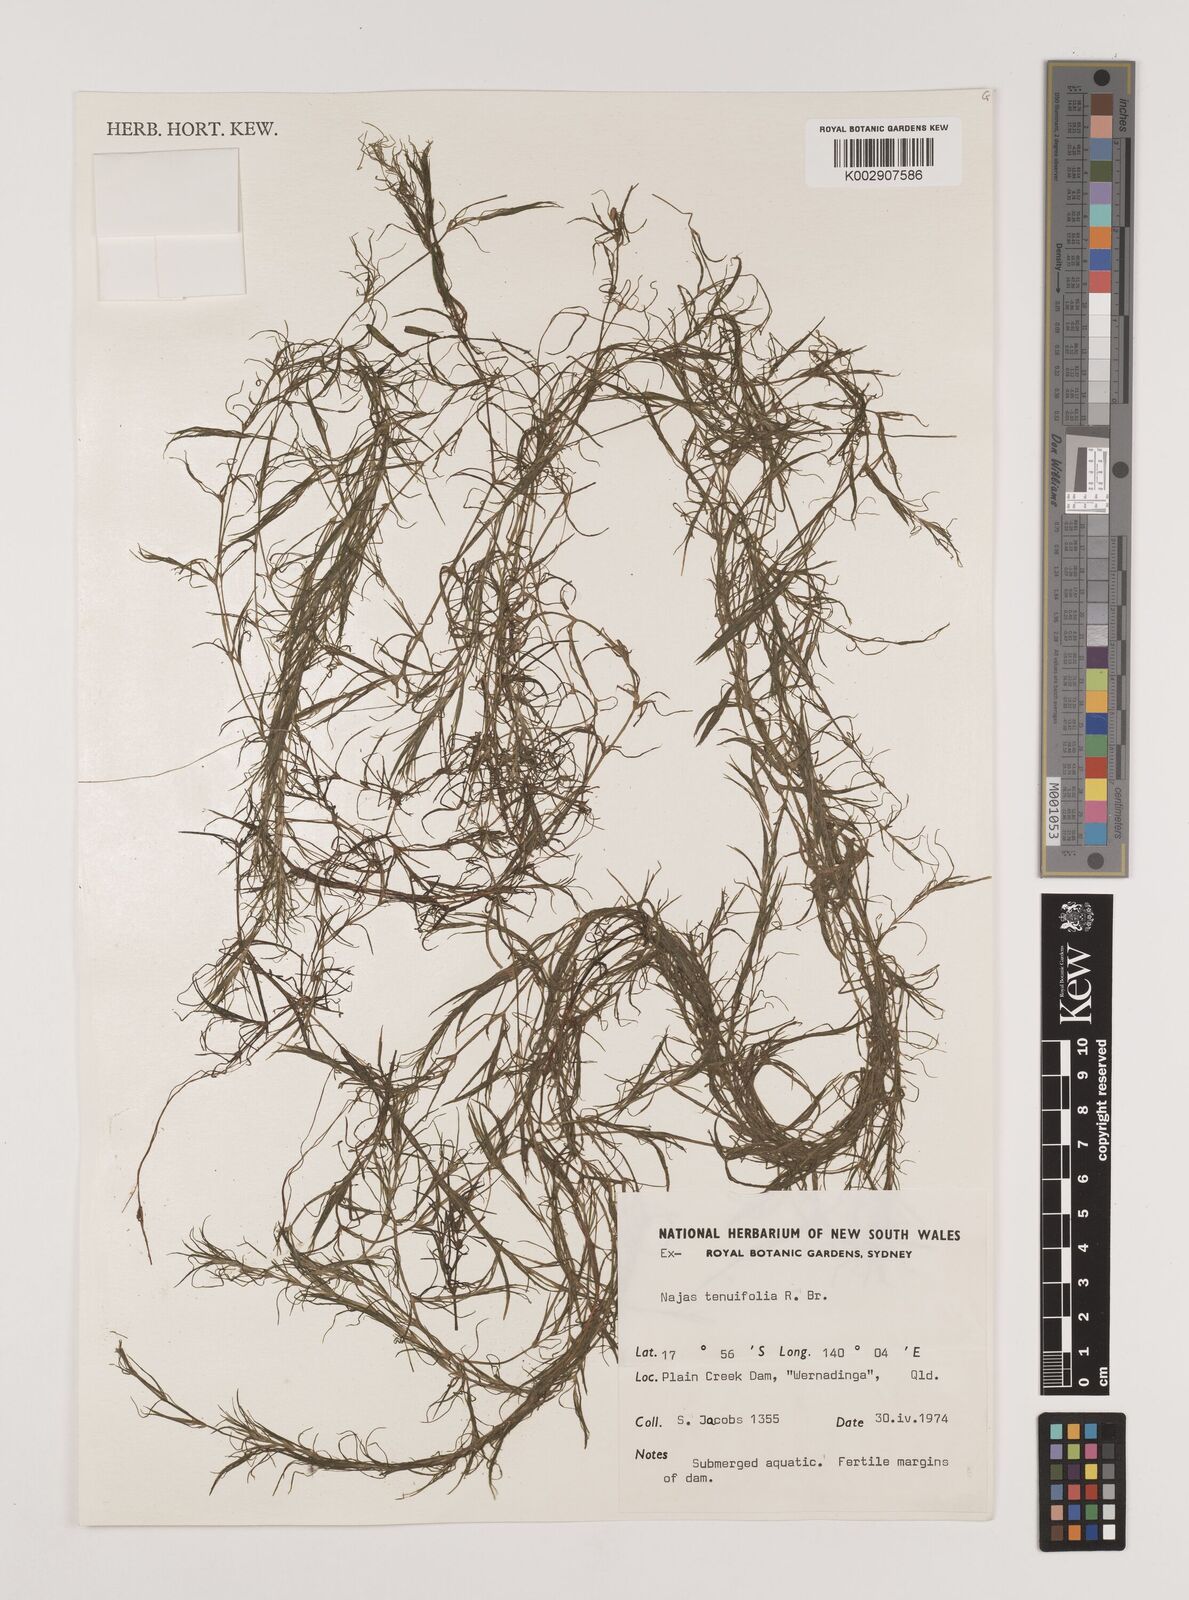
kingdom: Plantae
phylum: Tracheophyta
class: Liliopsida
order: Alismatales
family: Hydrocharitaceae
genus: Najas
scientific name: Najas tenuifolia
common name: Thin-leaved naiad
